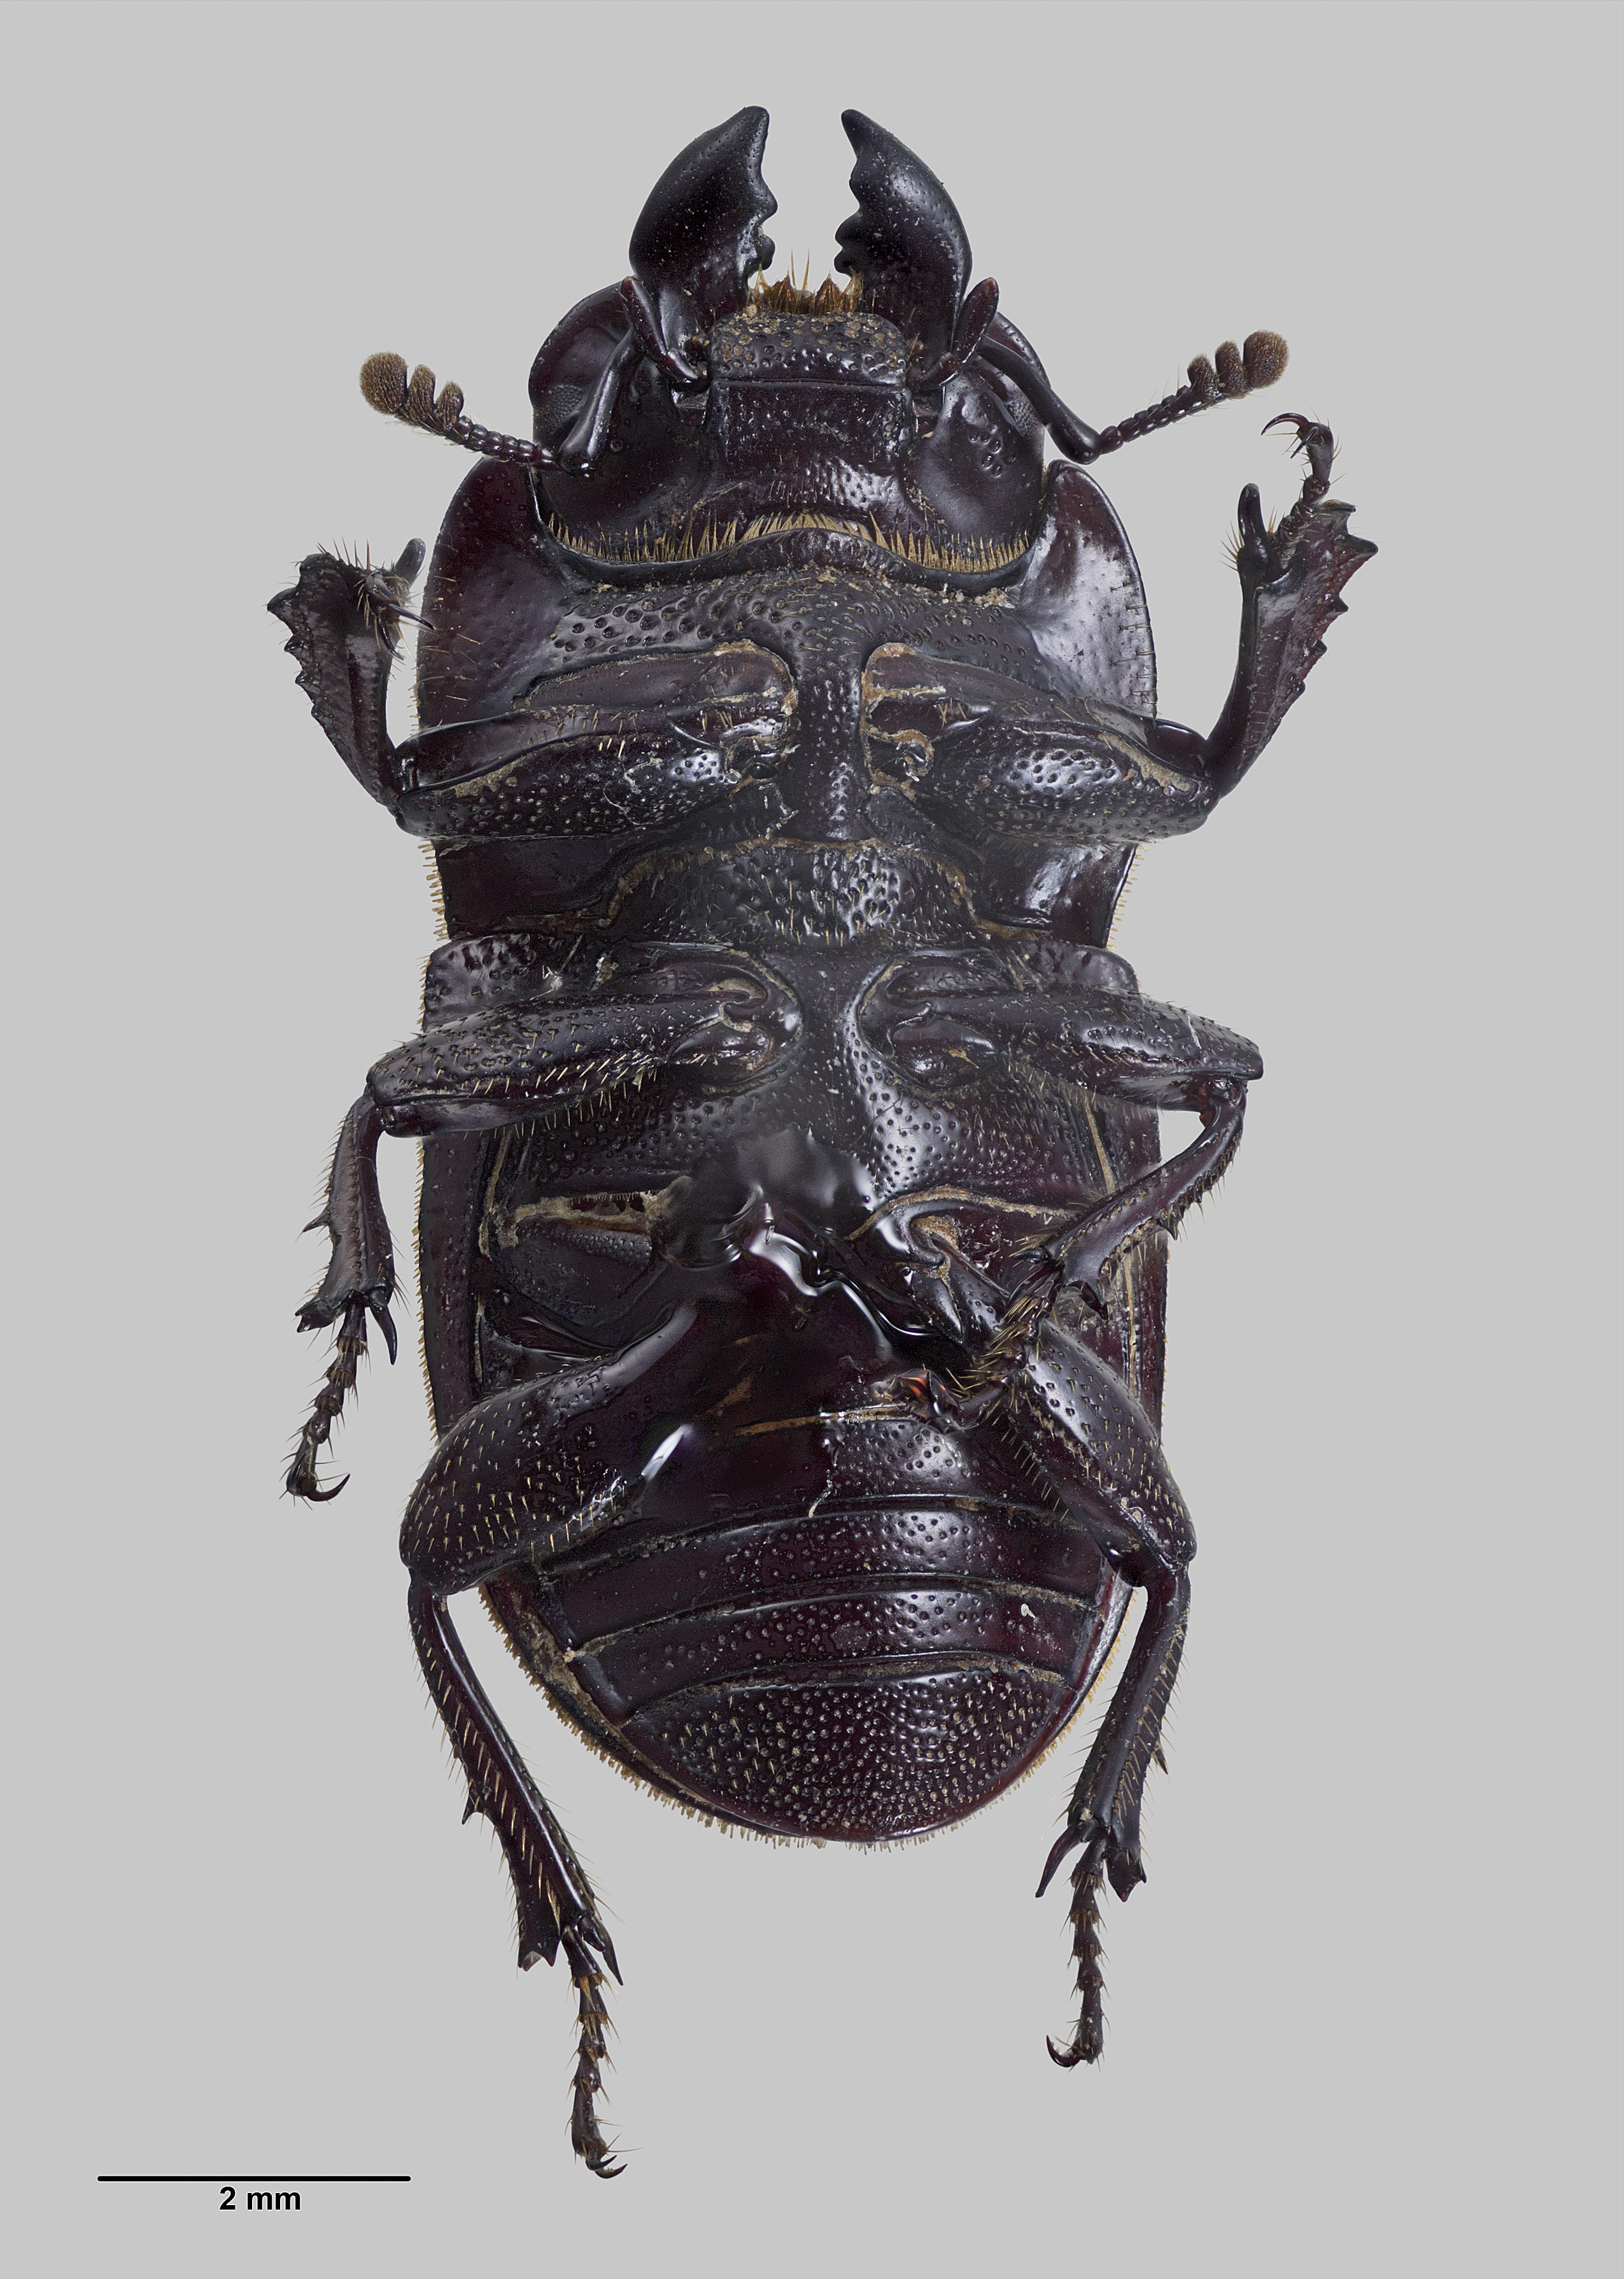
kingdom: Animalia
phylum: Arthropoda
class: Insecta
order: Coleoptera
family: Lucanidae
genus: Paralissotes
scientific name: Paralissotes triregius
